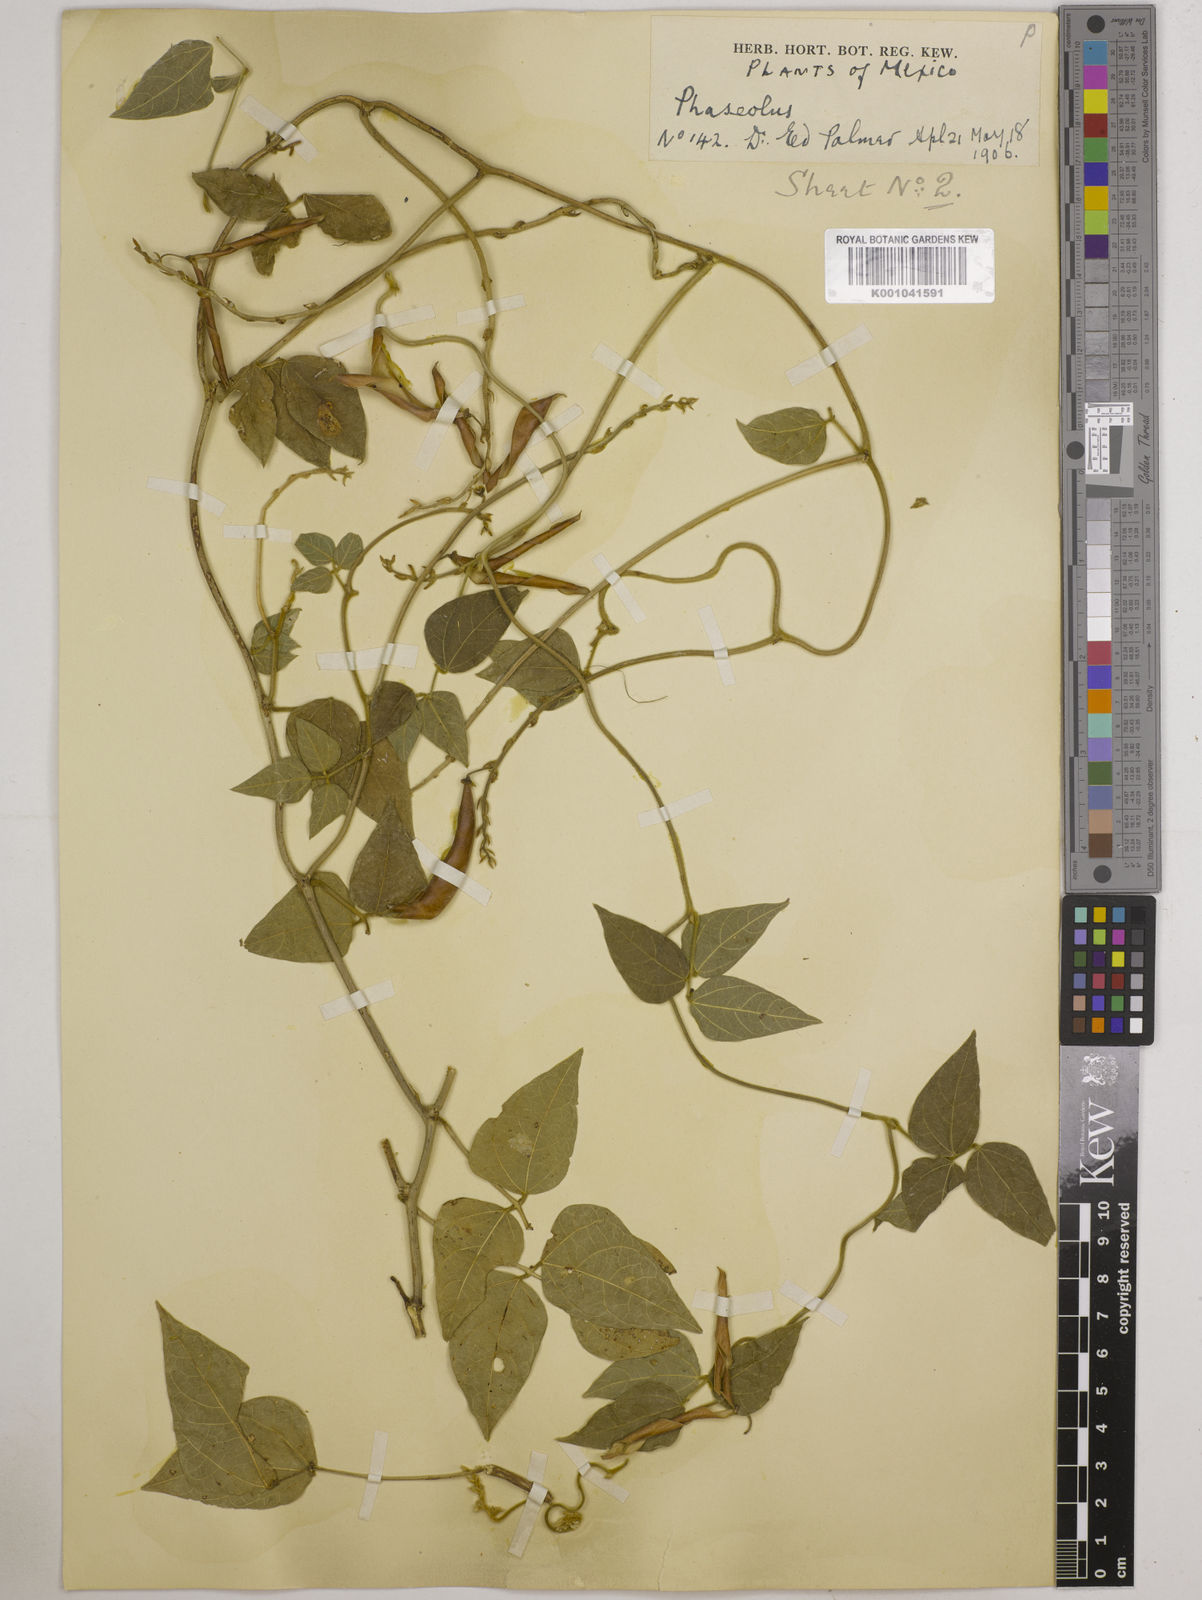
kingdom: Plantae
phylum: Tracheophyta
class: Magnoliopsida
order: Fabales
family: Fabaceae
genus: Phaseolus
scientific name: Phaseolus
